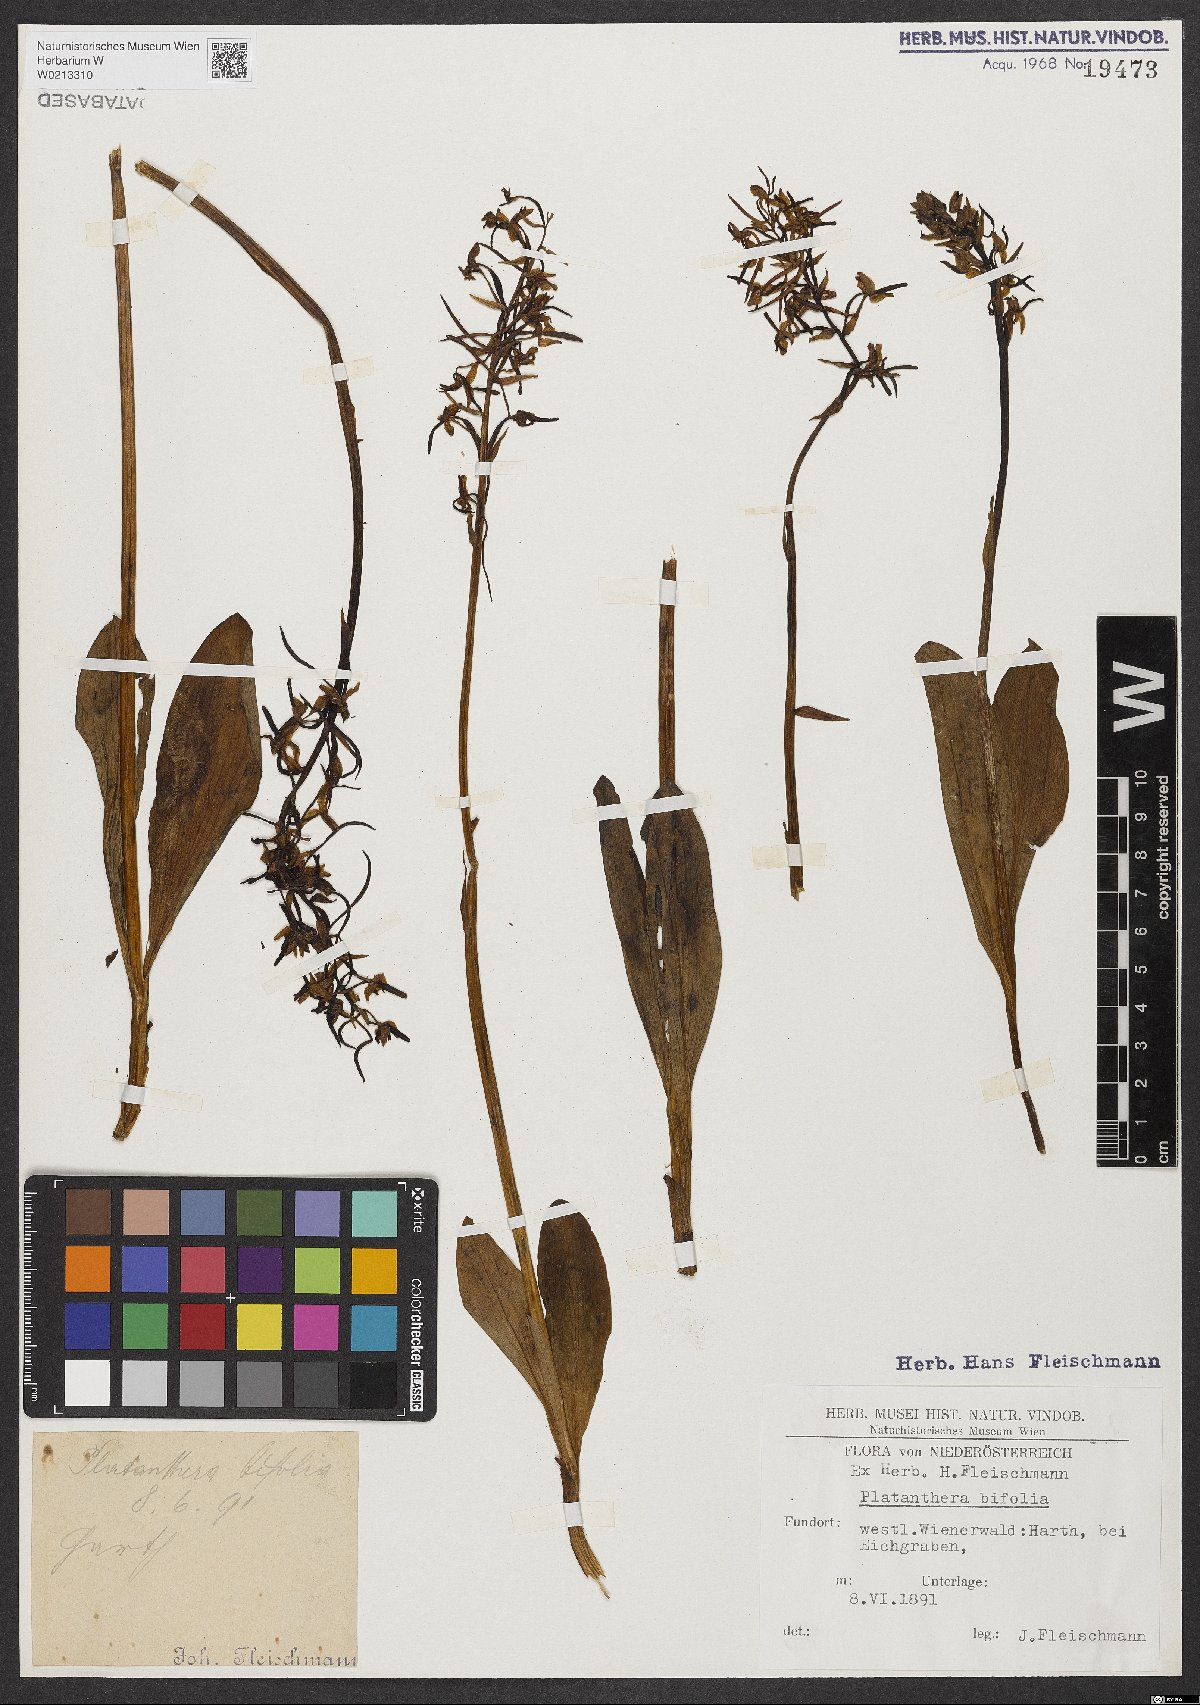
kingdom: Plantae
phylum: Tracheophyta
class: Liliopsida
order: Asparagales
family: Orchidaceae
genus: Platanthera
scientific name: Platanthera bifolia
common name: Lesser butterfly-orchid
